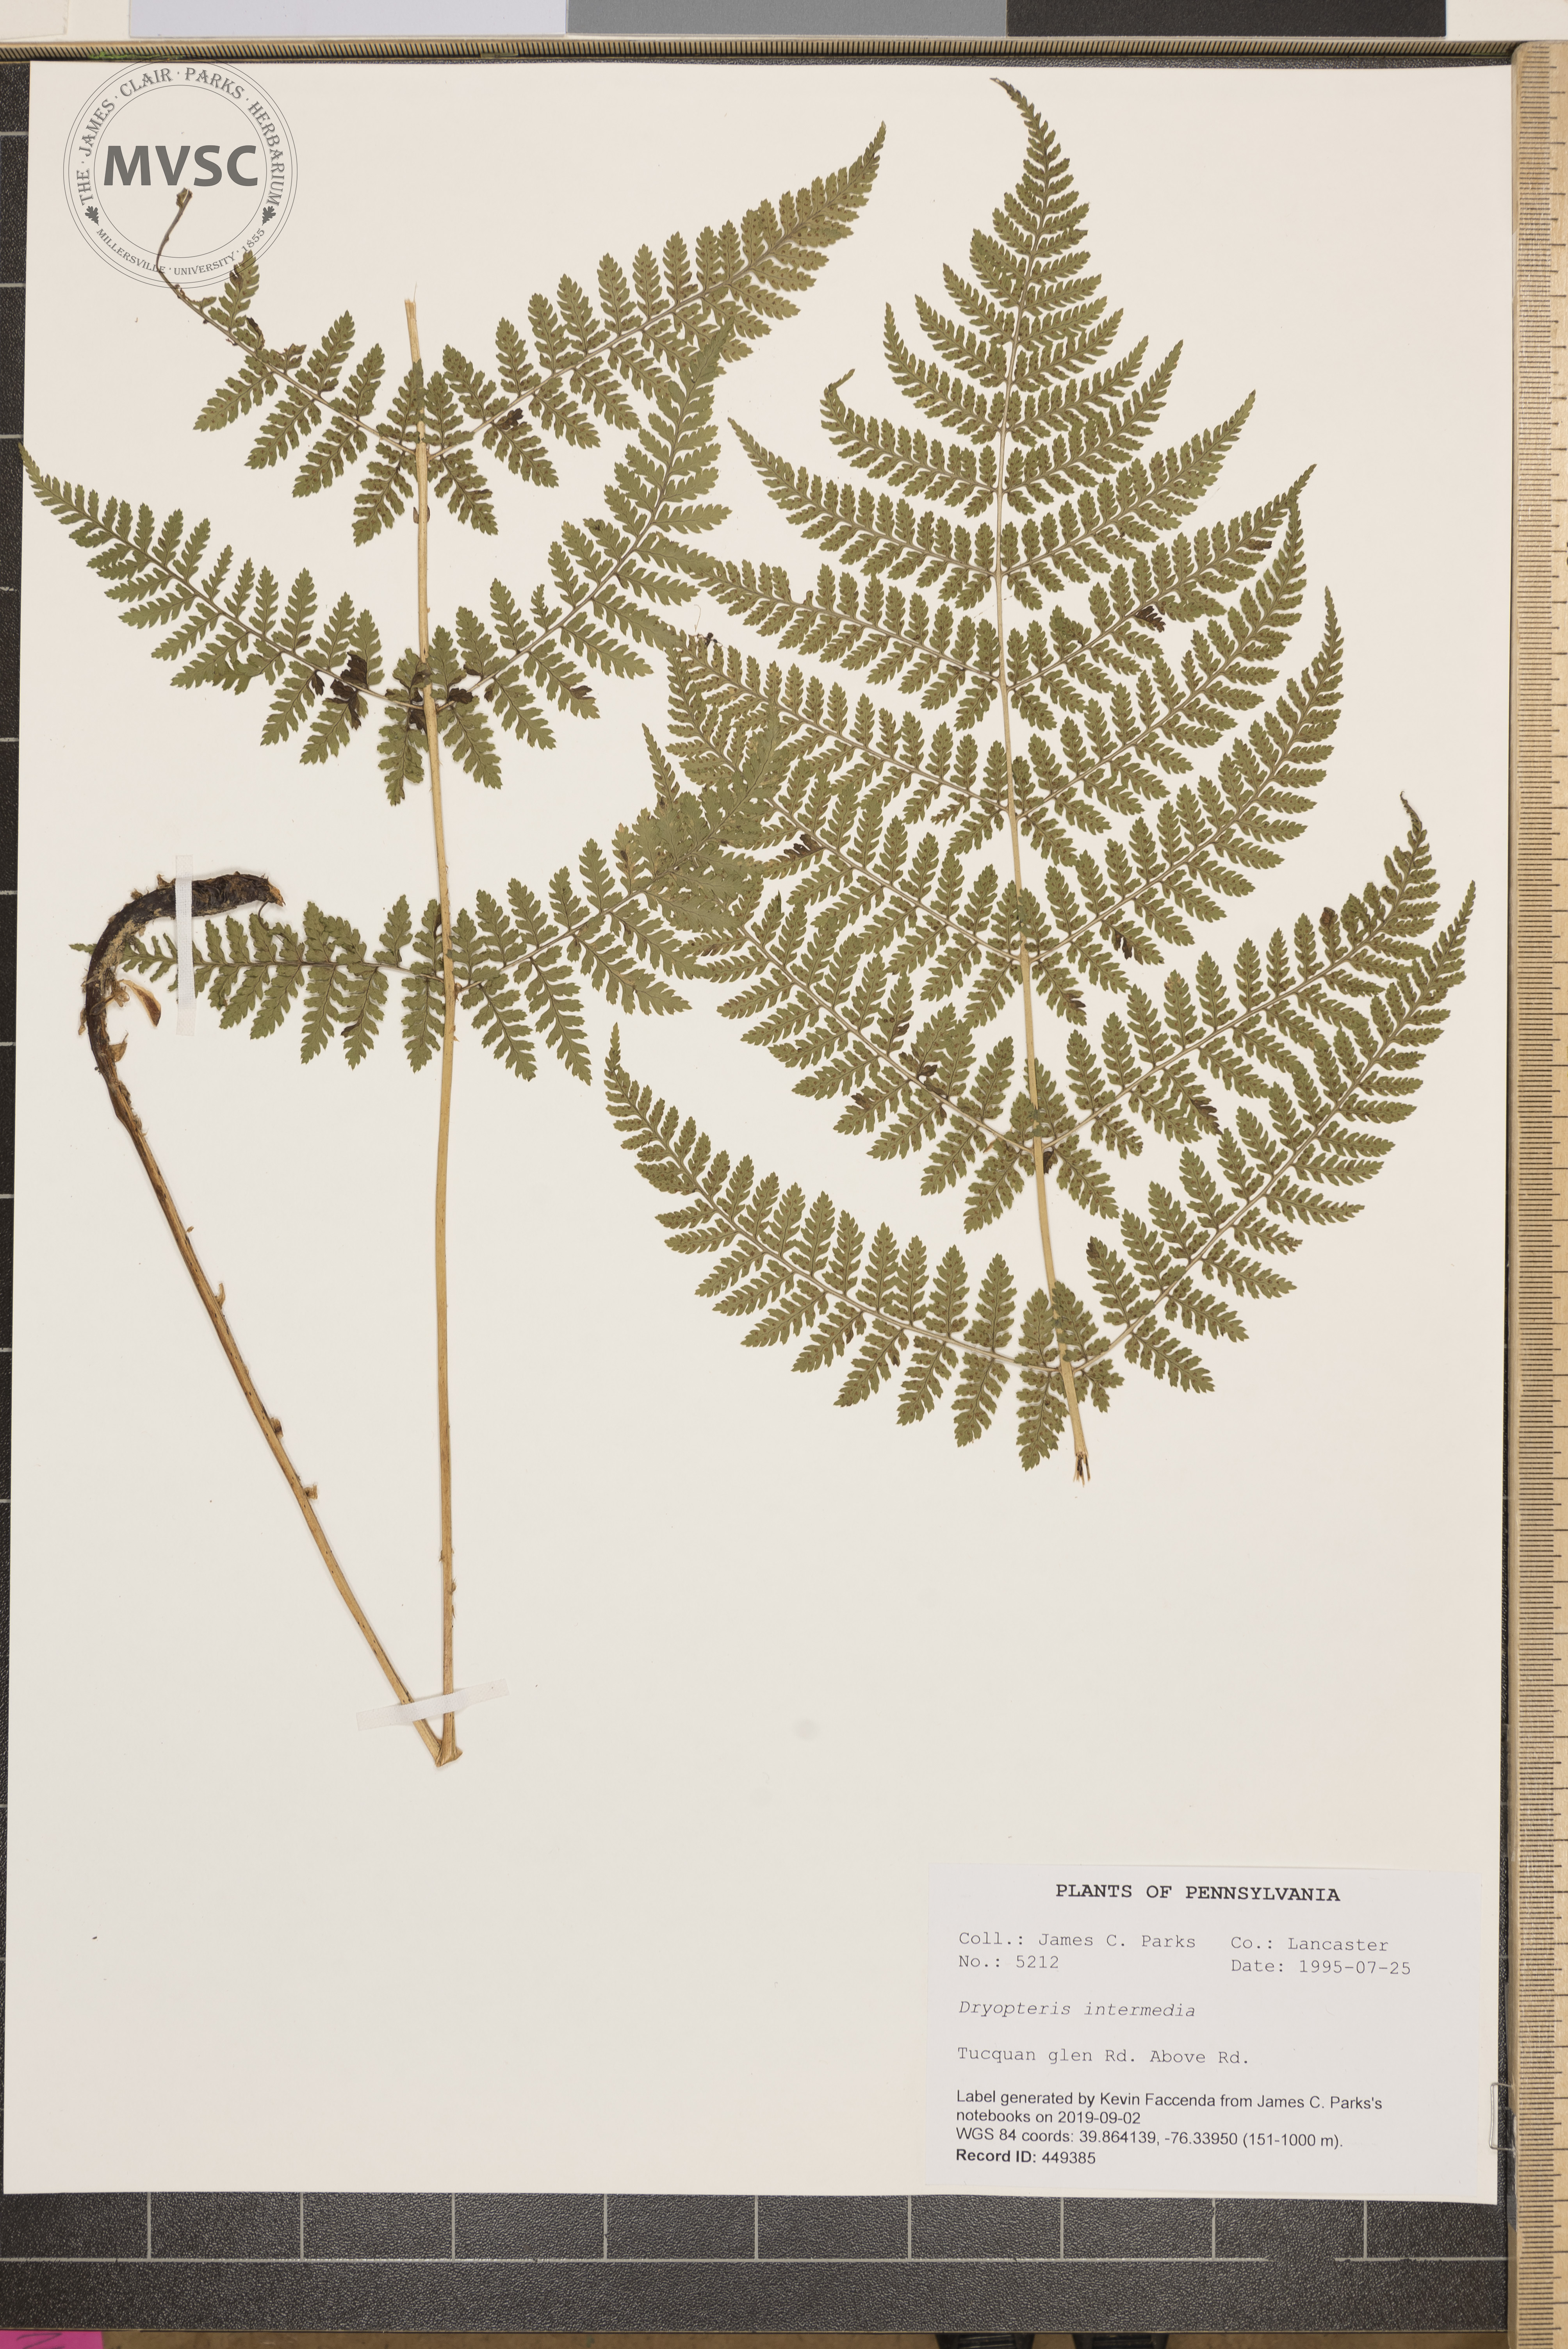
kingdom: Plantae
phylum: Tracheophyta
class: Polypodiopsida
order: Polypodiales
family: Dryopteridaceae
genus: Dryopteris
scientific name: Dryopteris intermedia
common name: Evergreen wood fern
